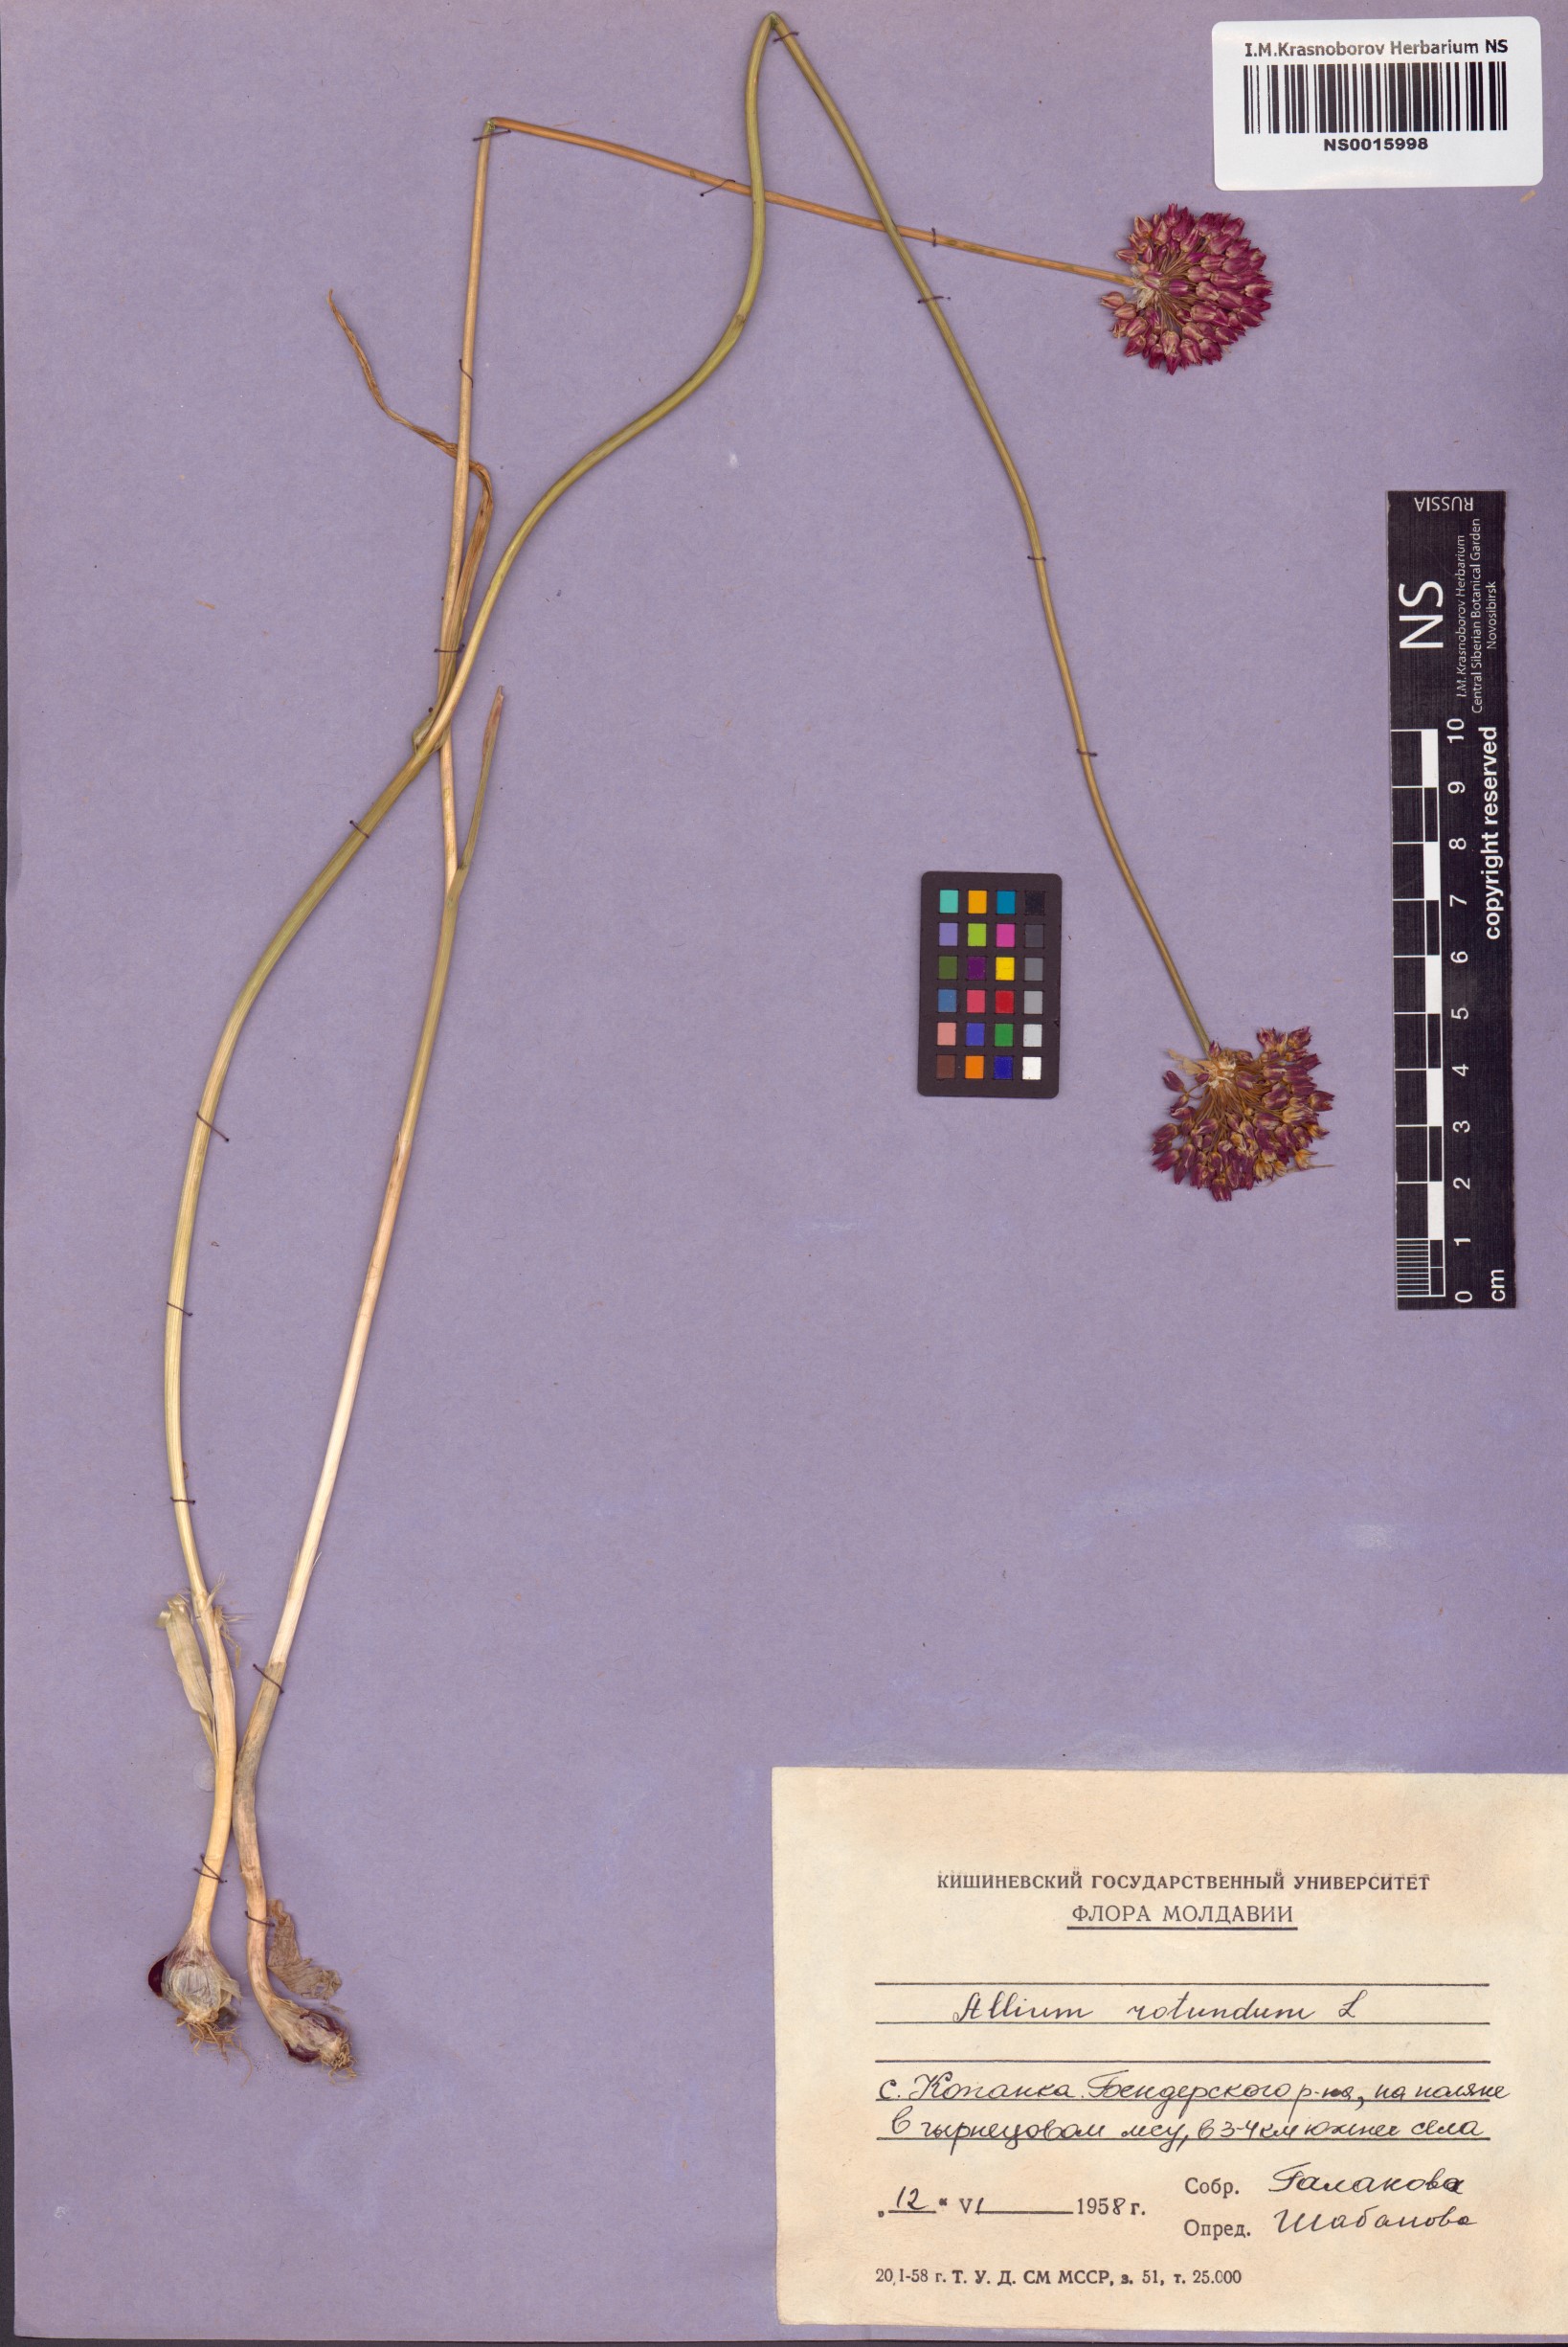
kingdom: Plantae
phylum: Tracheophyta
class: Liliopsida
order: Asparagales
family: Amaryllidaceae
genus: Allium
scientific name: Allium rotundum
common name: Sand leek
